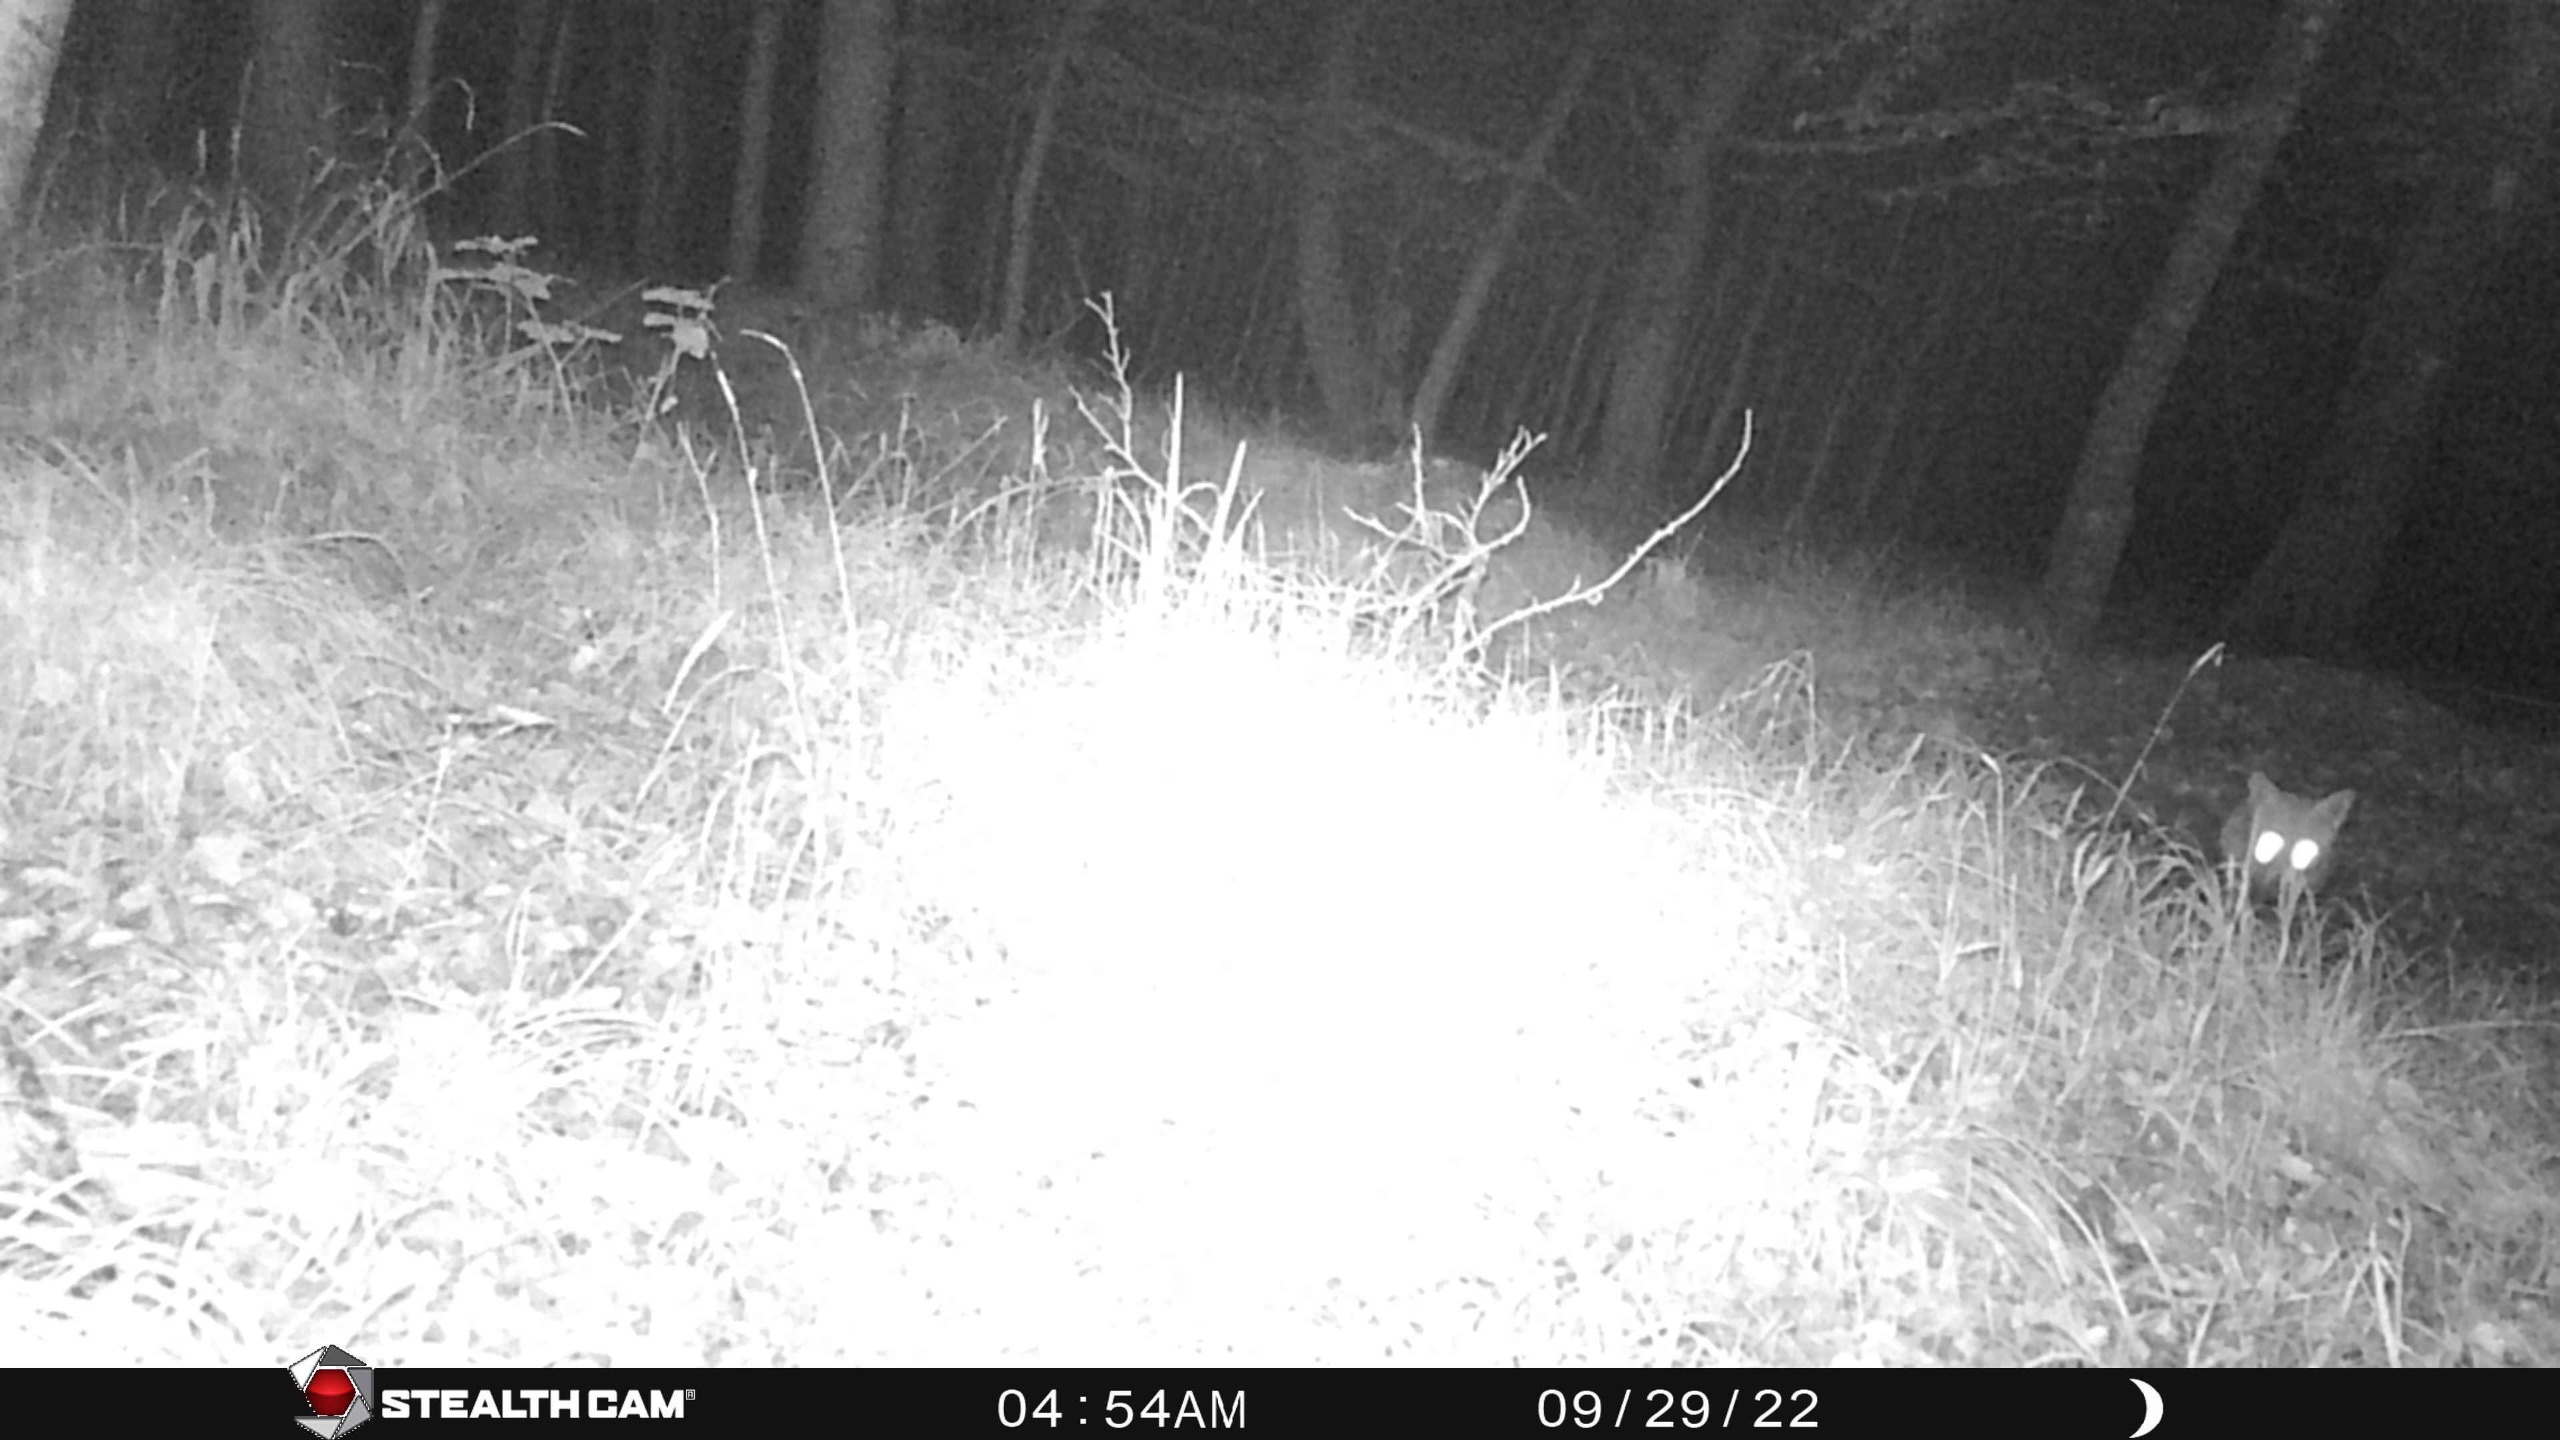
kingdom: Animalia
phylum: Chordata
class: Mammalia
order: Carnivora
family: Canidae
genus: Vulpes
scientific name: Vulpes vulpes
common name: Ræv
